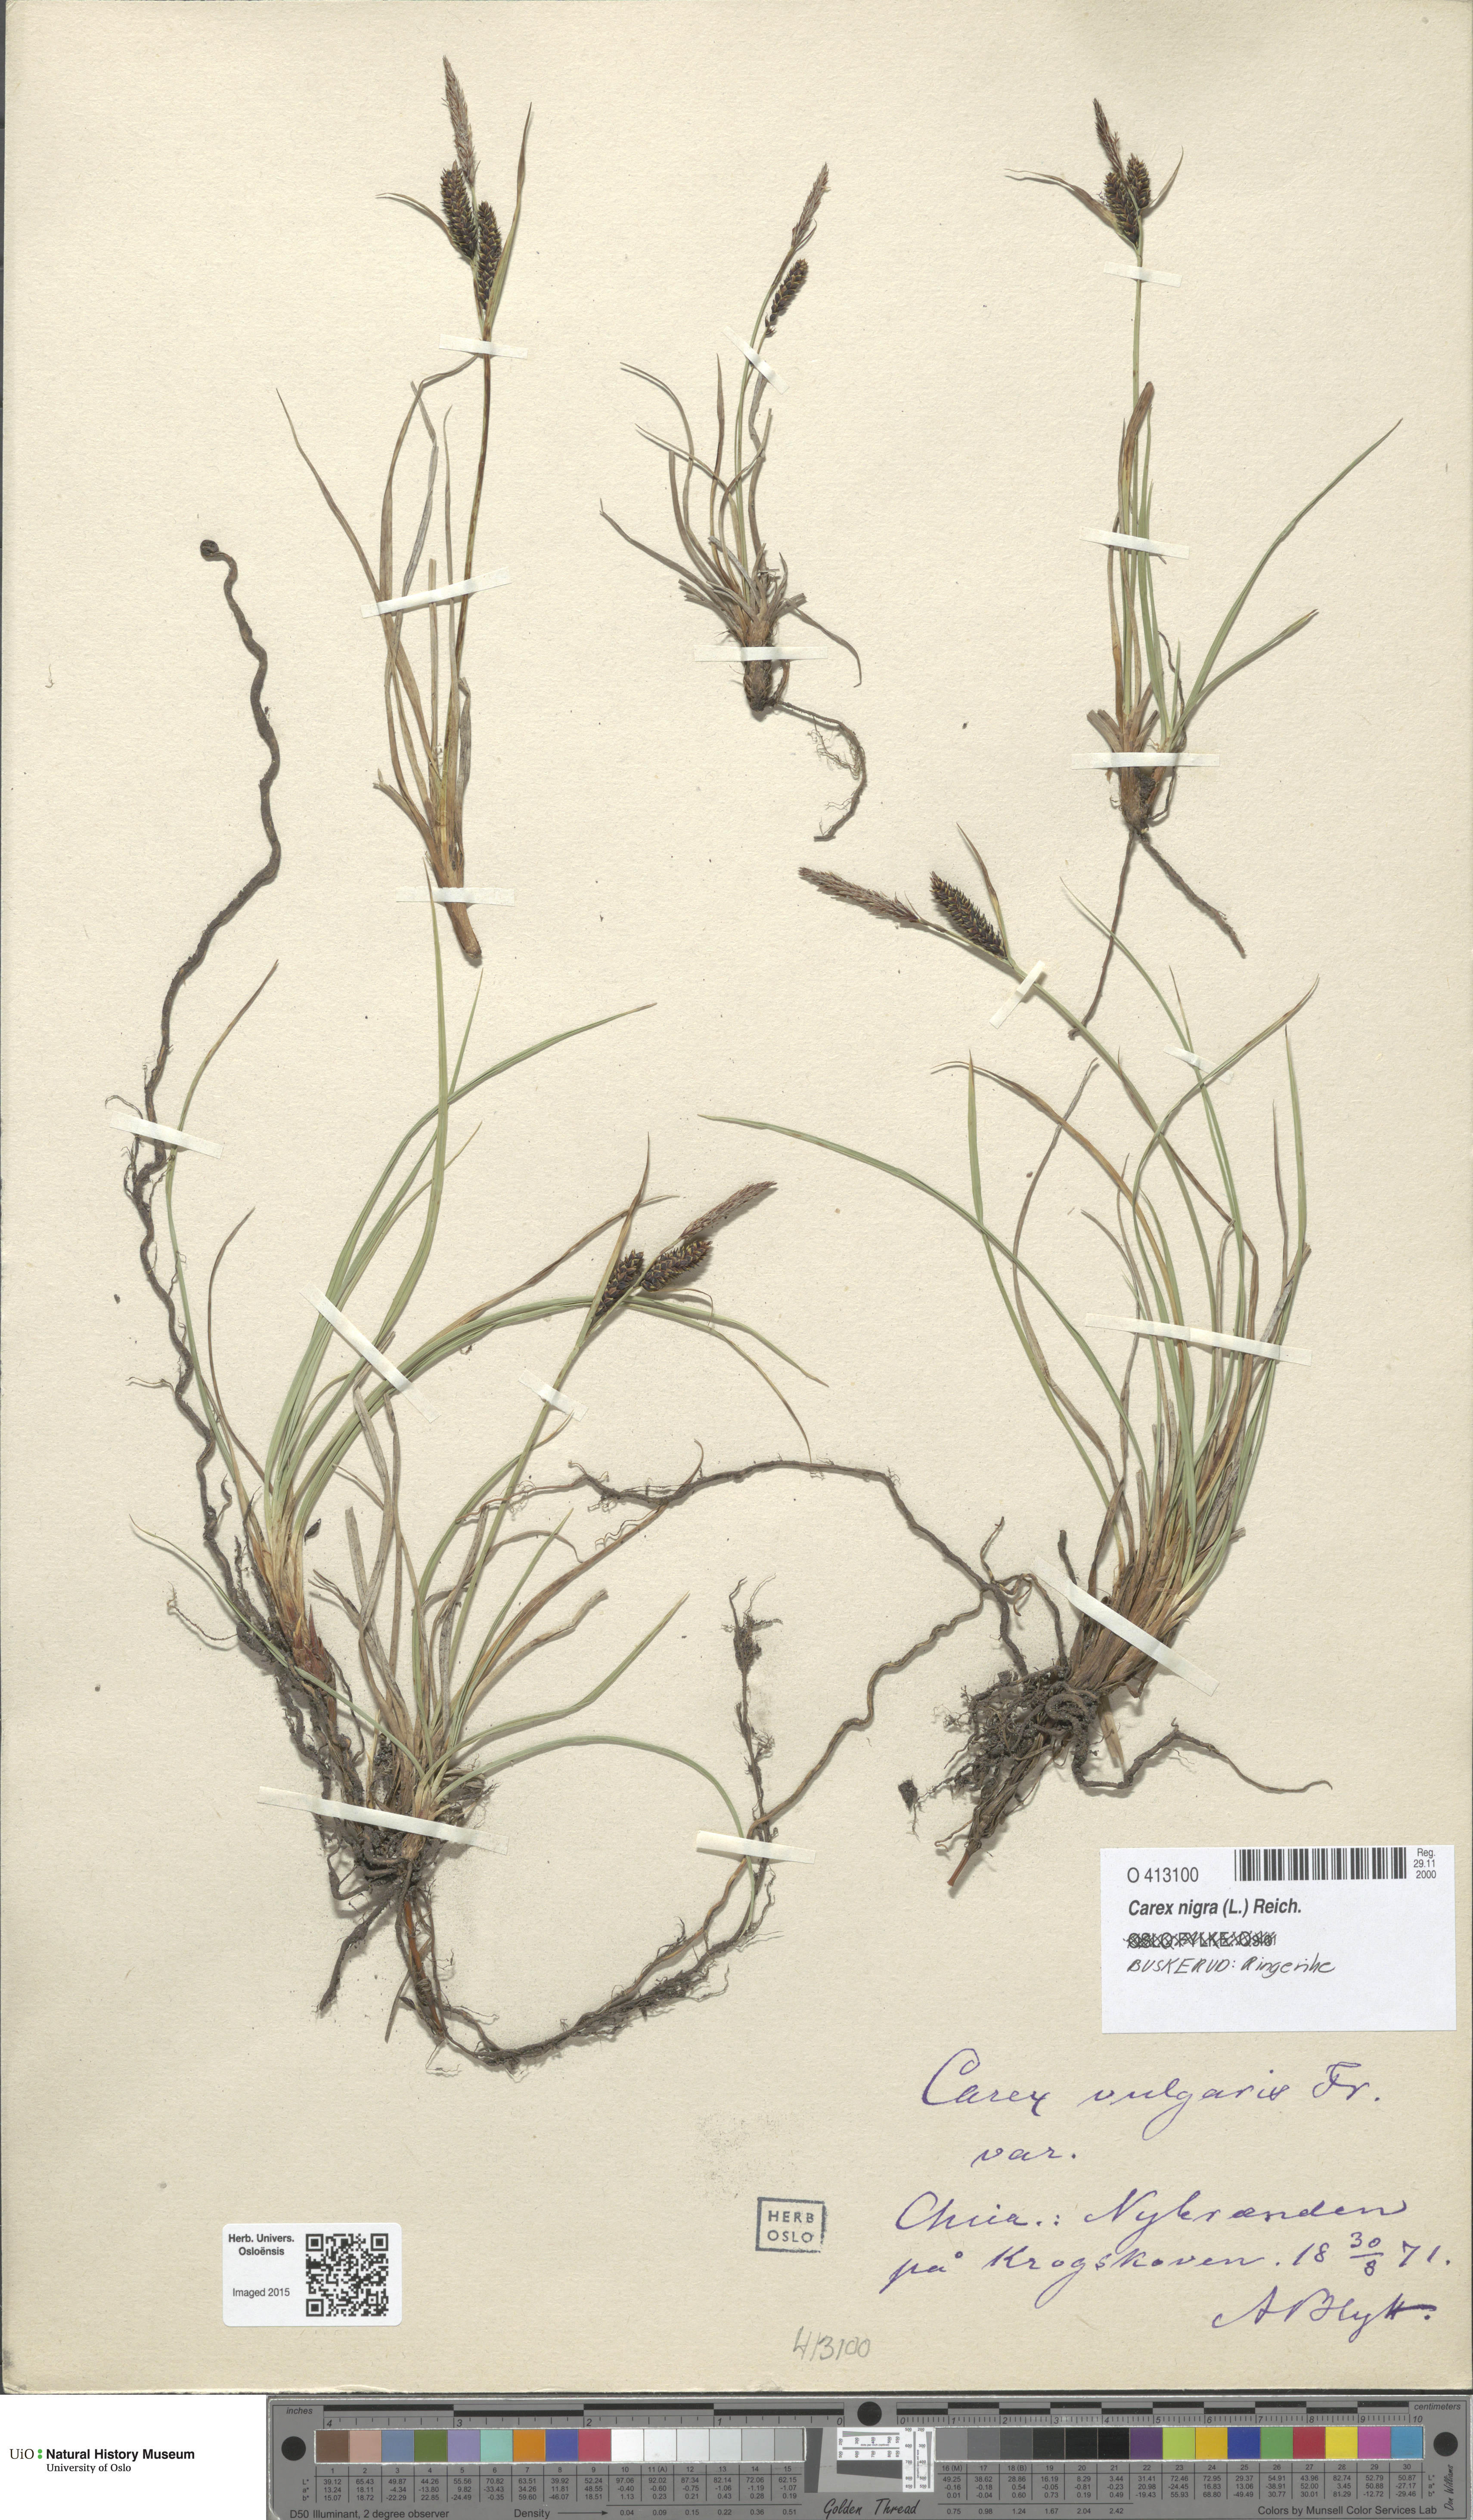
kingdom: Plantae
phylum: Tracheophyta
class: Liliopsida
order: Poales
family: Cyperaceae
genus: Carex
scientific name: Carex nigra
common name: Common sedge
